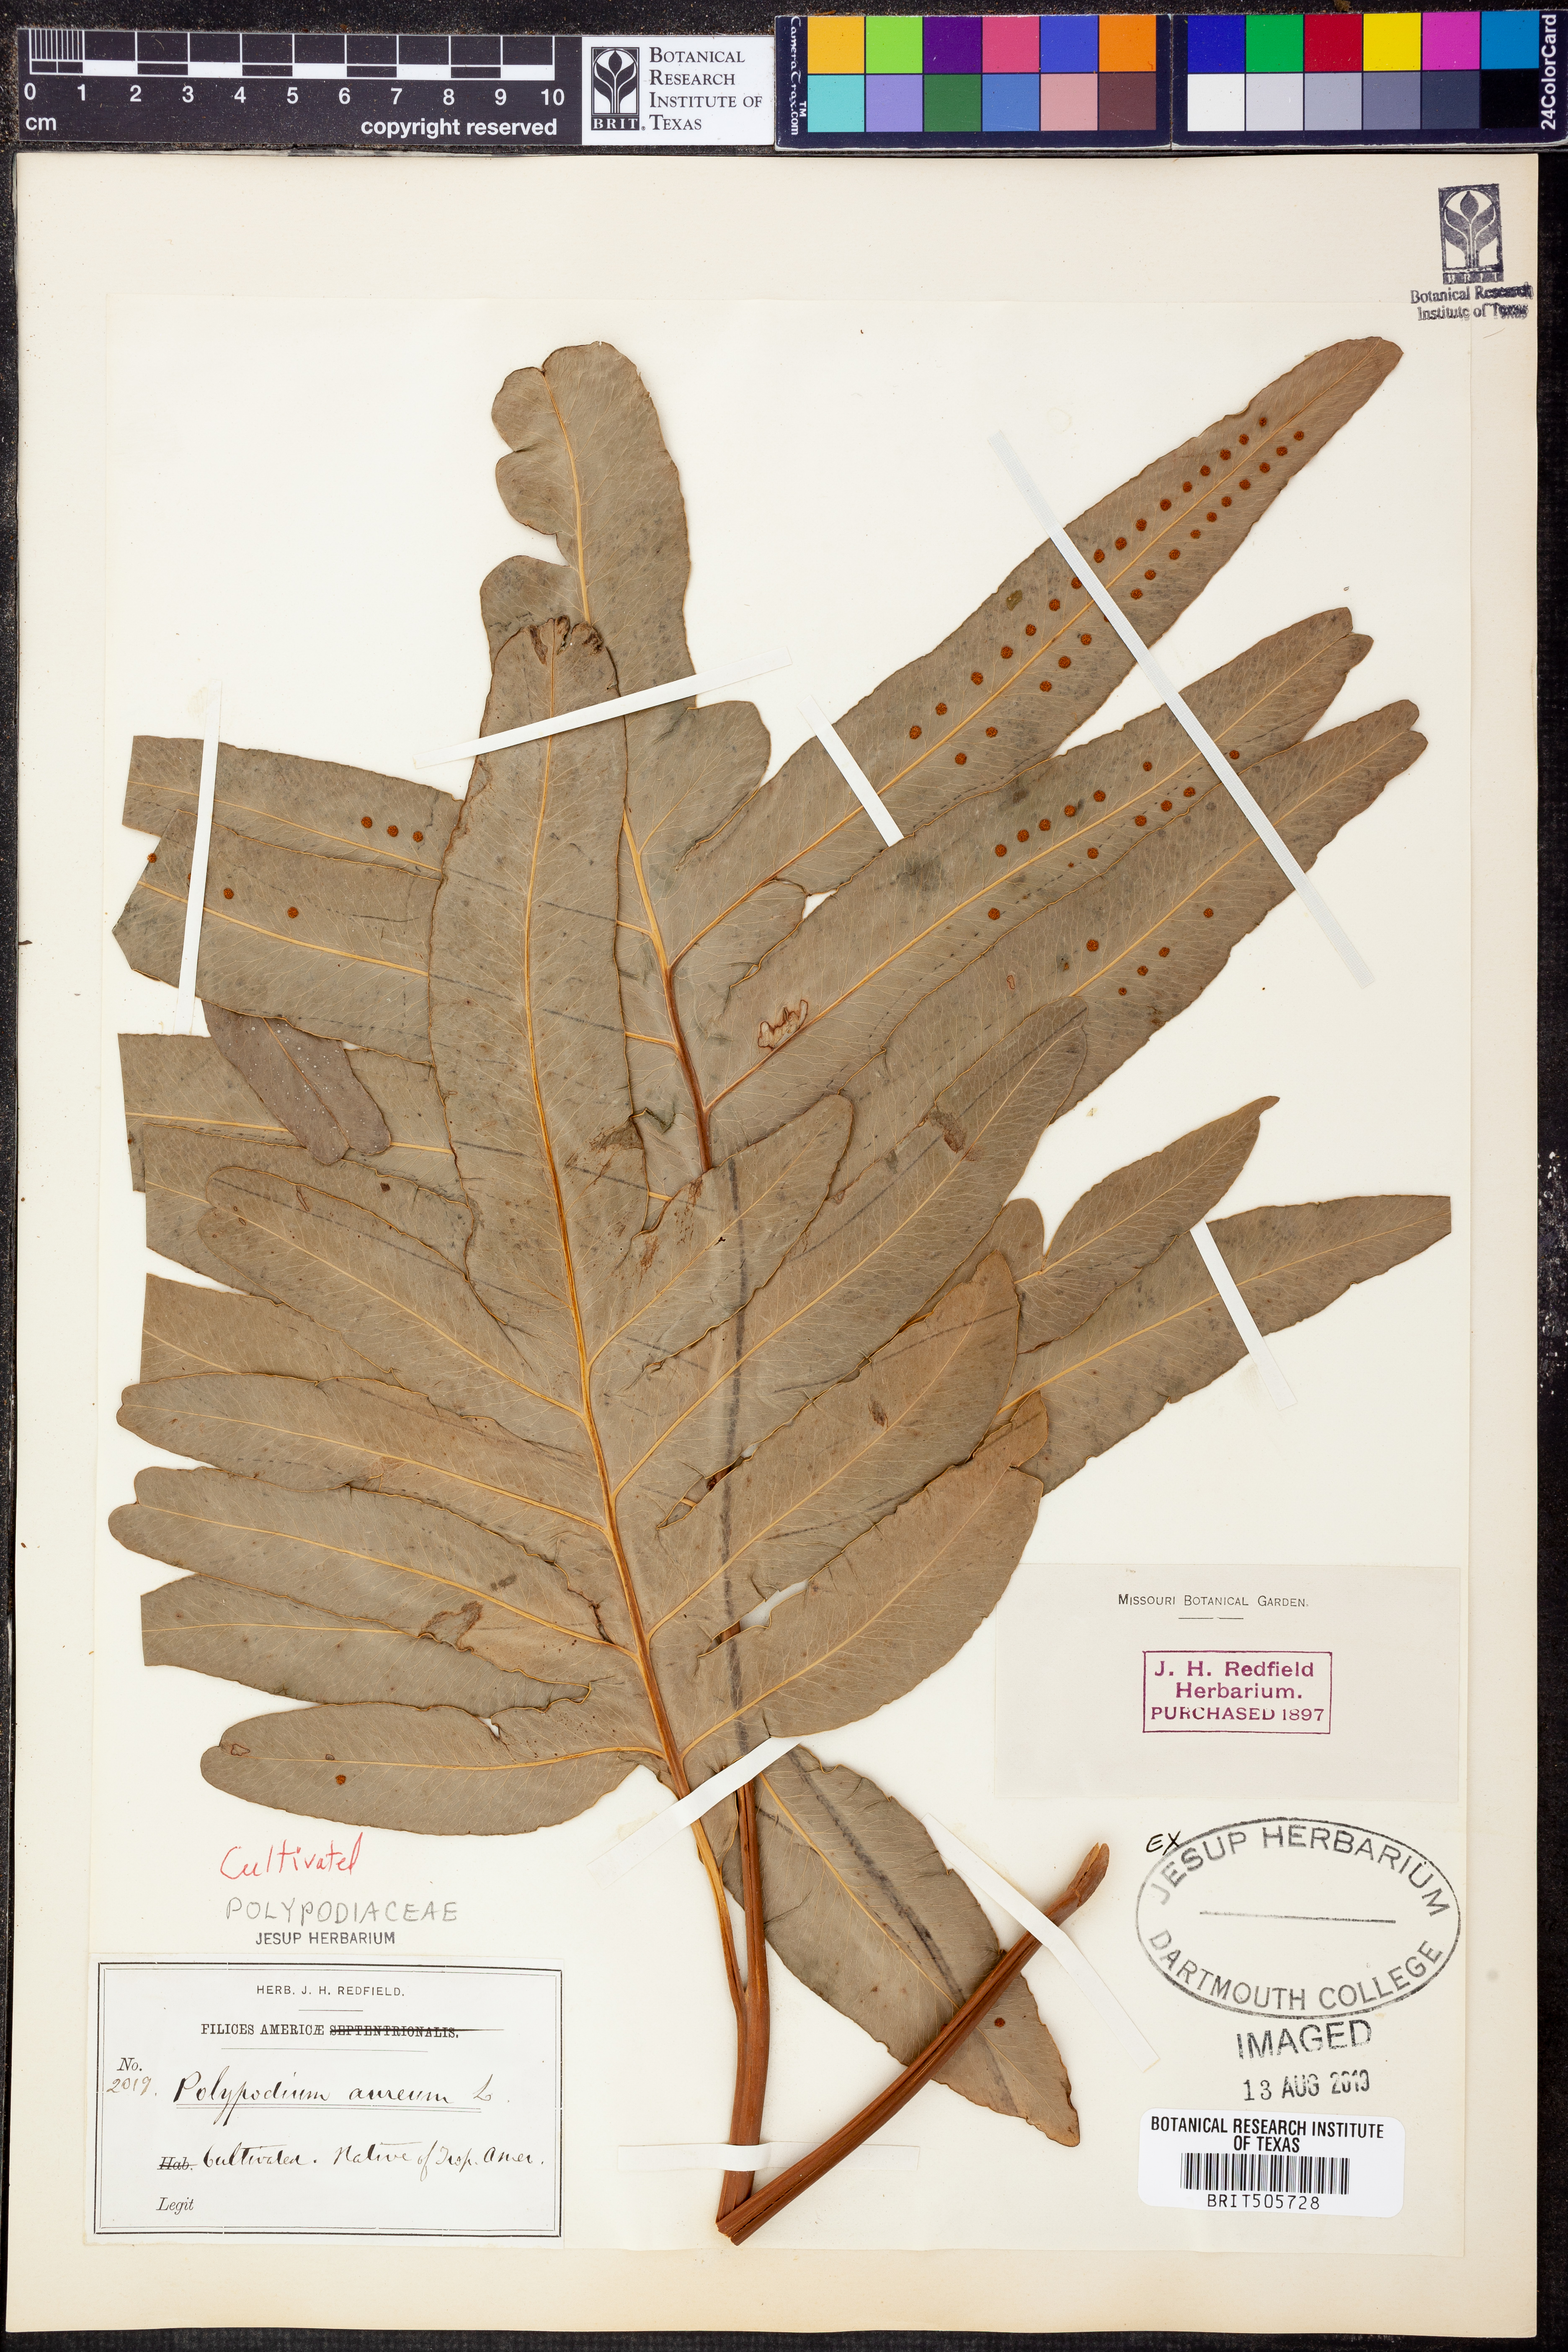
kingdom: Plantae
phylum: Tracheophyta
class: Polypodiopsida
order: Polypodiales
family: Polypodiaceae
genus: Phlebodium
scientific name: Phlebodium aureum
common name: Gold-foot fern
